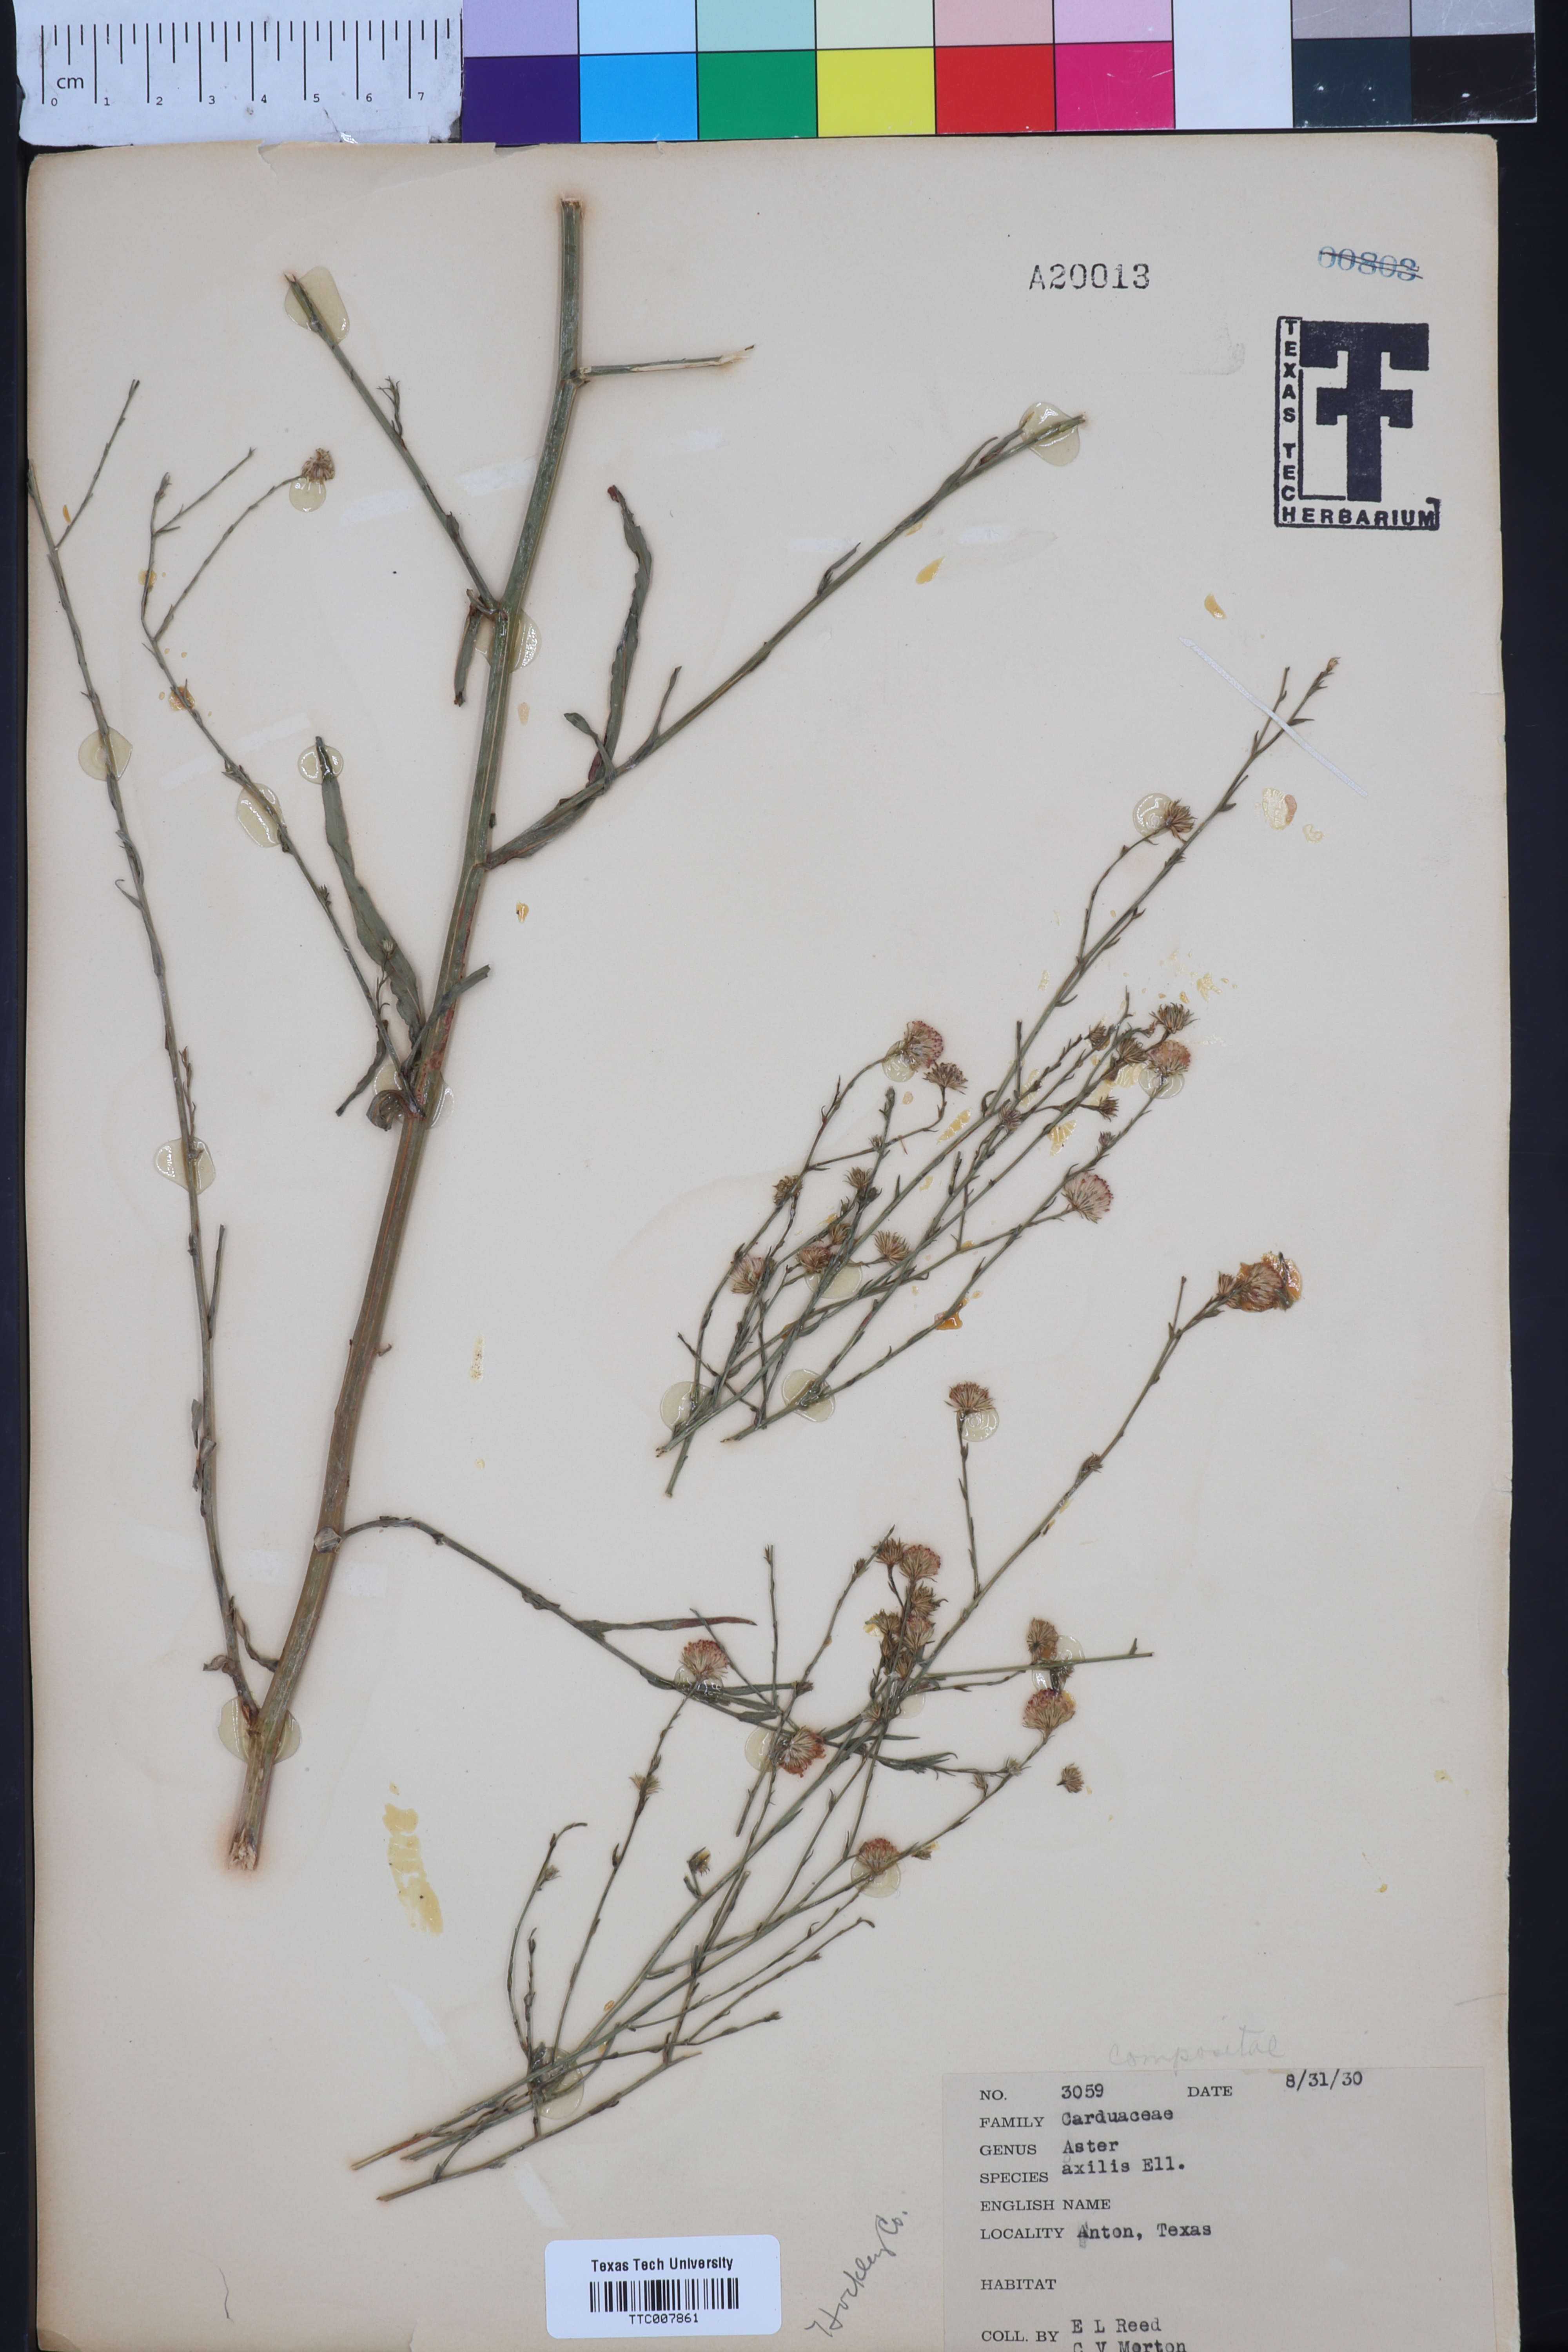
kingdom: Plantae
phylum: Tracheophyta
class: Magnoliopsida
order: Asterales
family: Asteraceae
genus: Olearia
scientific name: Olearia axillaris
